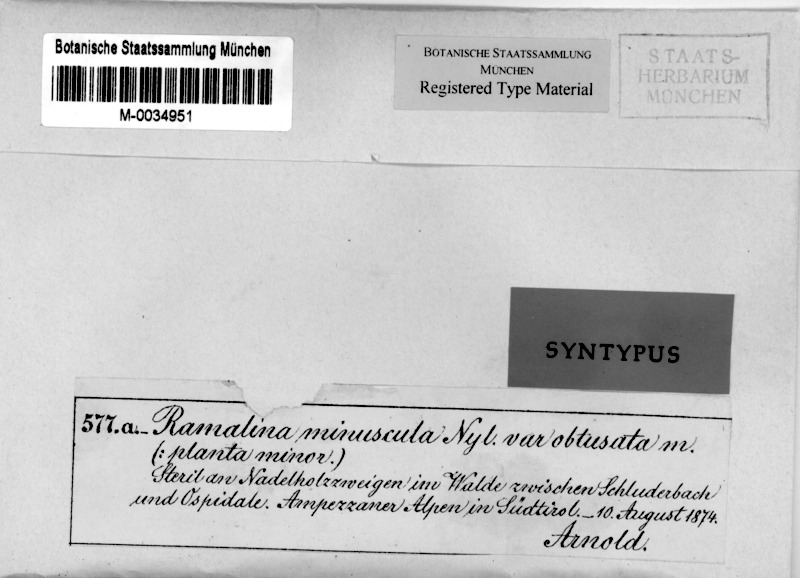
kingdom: Fungi
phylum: Ascomycota
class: Lecanoromycetes
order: Lecanorales
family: Ramalinaceae
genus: Ramalina
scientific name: Ramalina obtusata
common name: Hooded ribbon lichen
